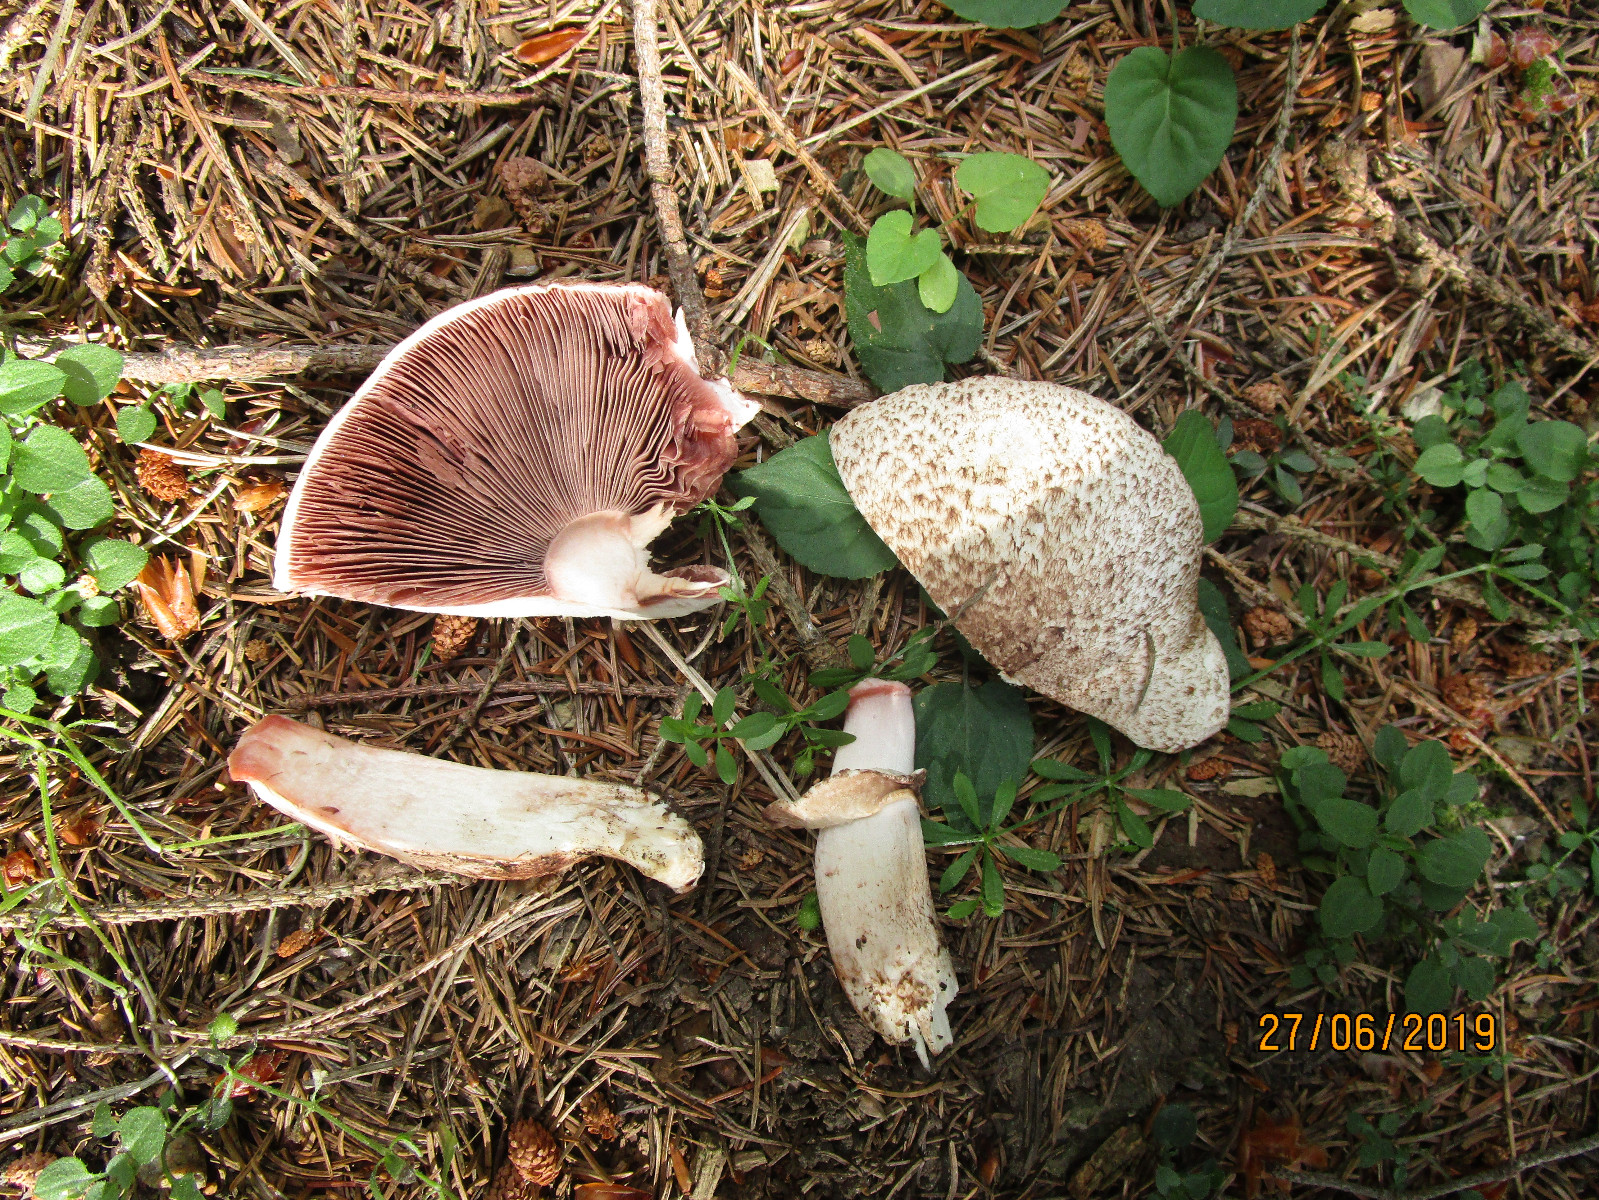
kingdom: Fungi
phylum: Basidiomycota
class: Agaricomycetes
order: Agaricales
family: Agaricaceae
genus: Agaricus
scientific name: Agaricus impudicus
